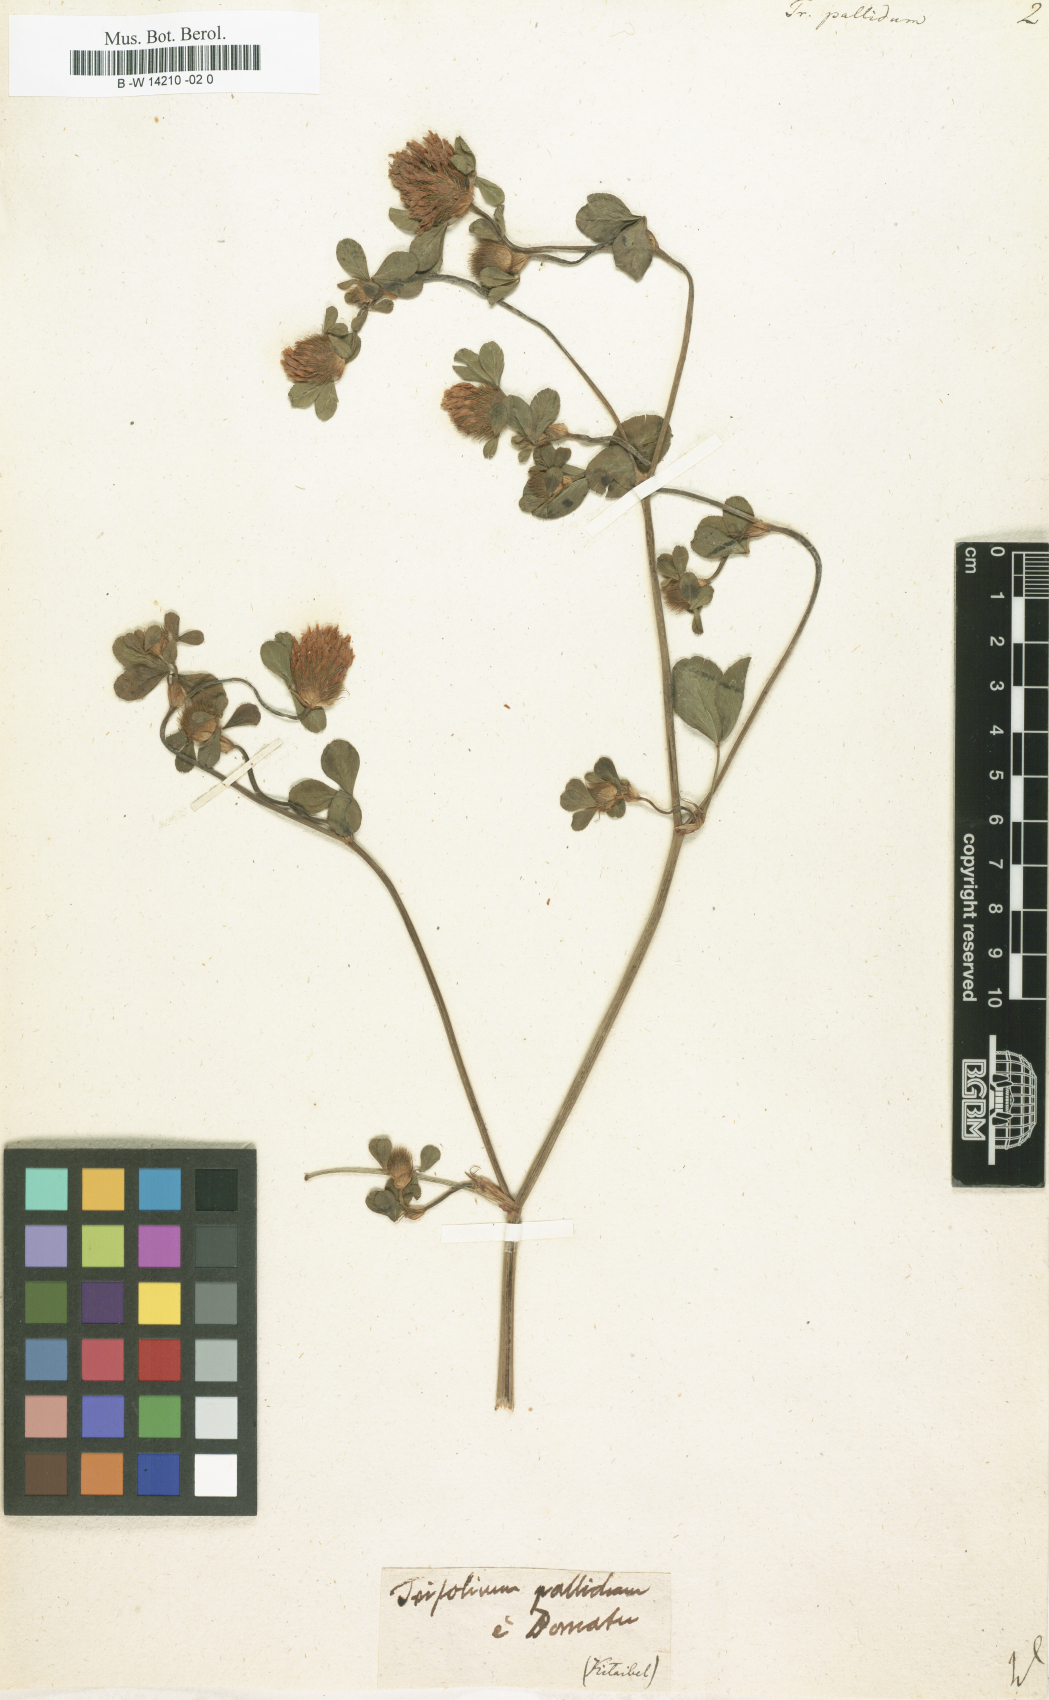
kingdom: Plantae
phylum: Tracheophyta
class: Magnoliopsida
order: Fabales
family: Fabaceae
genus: Trifolium
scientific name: Trifolium pallidum
